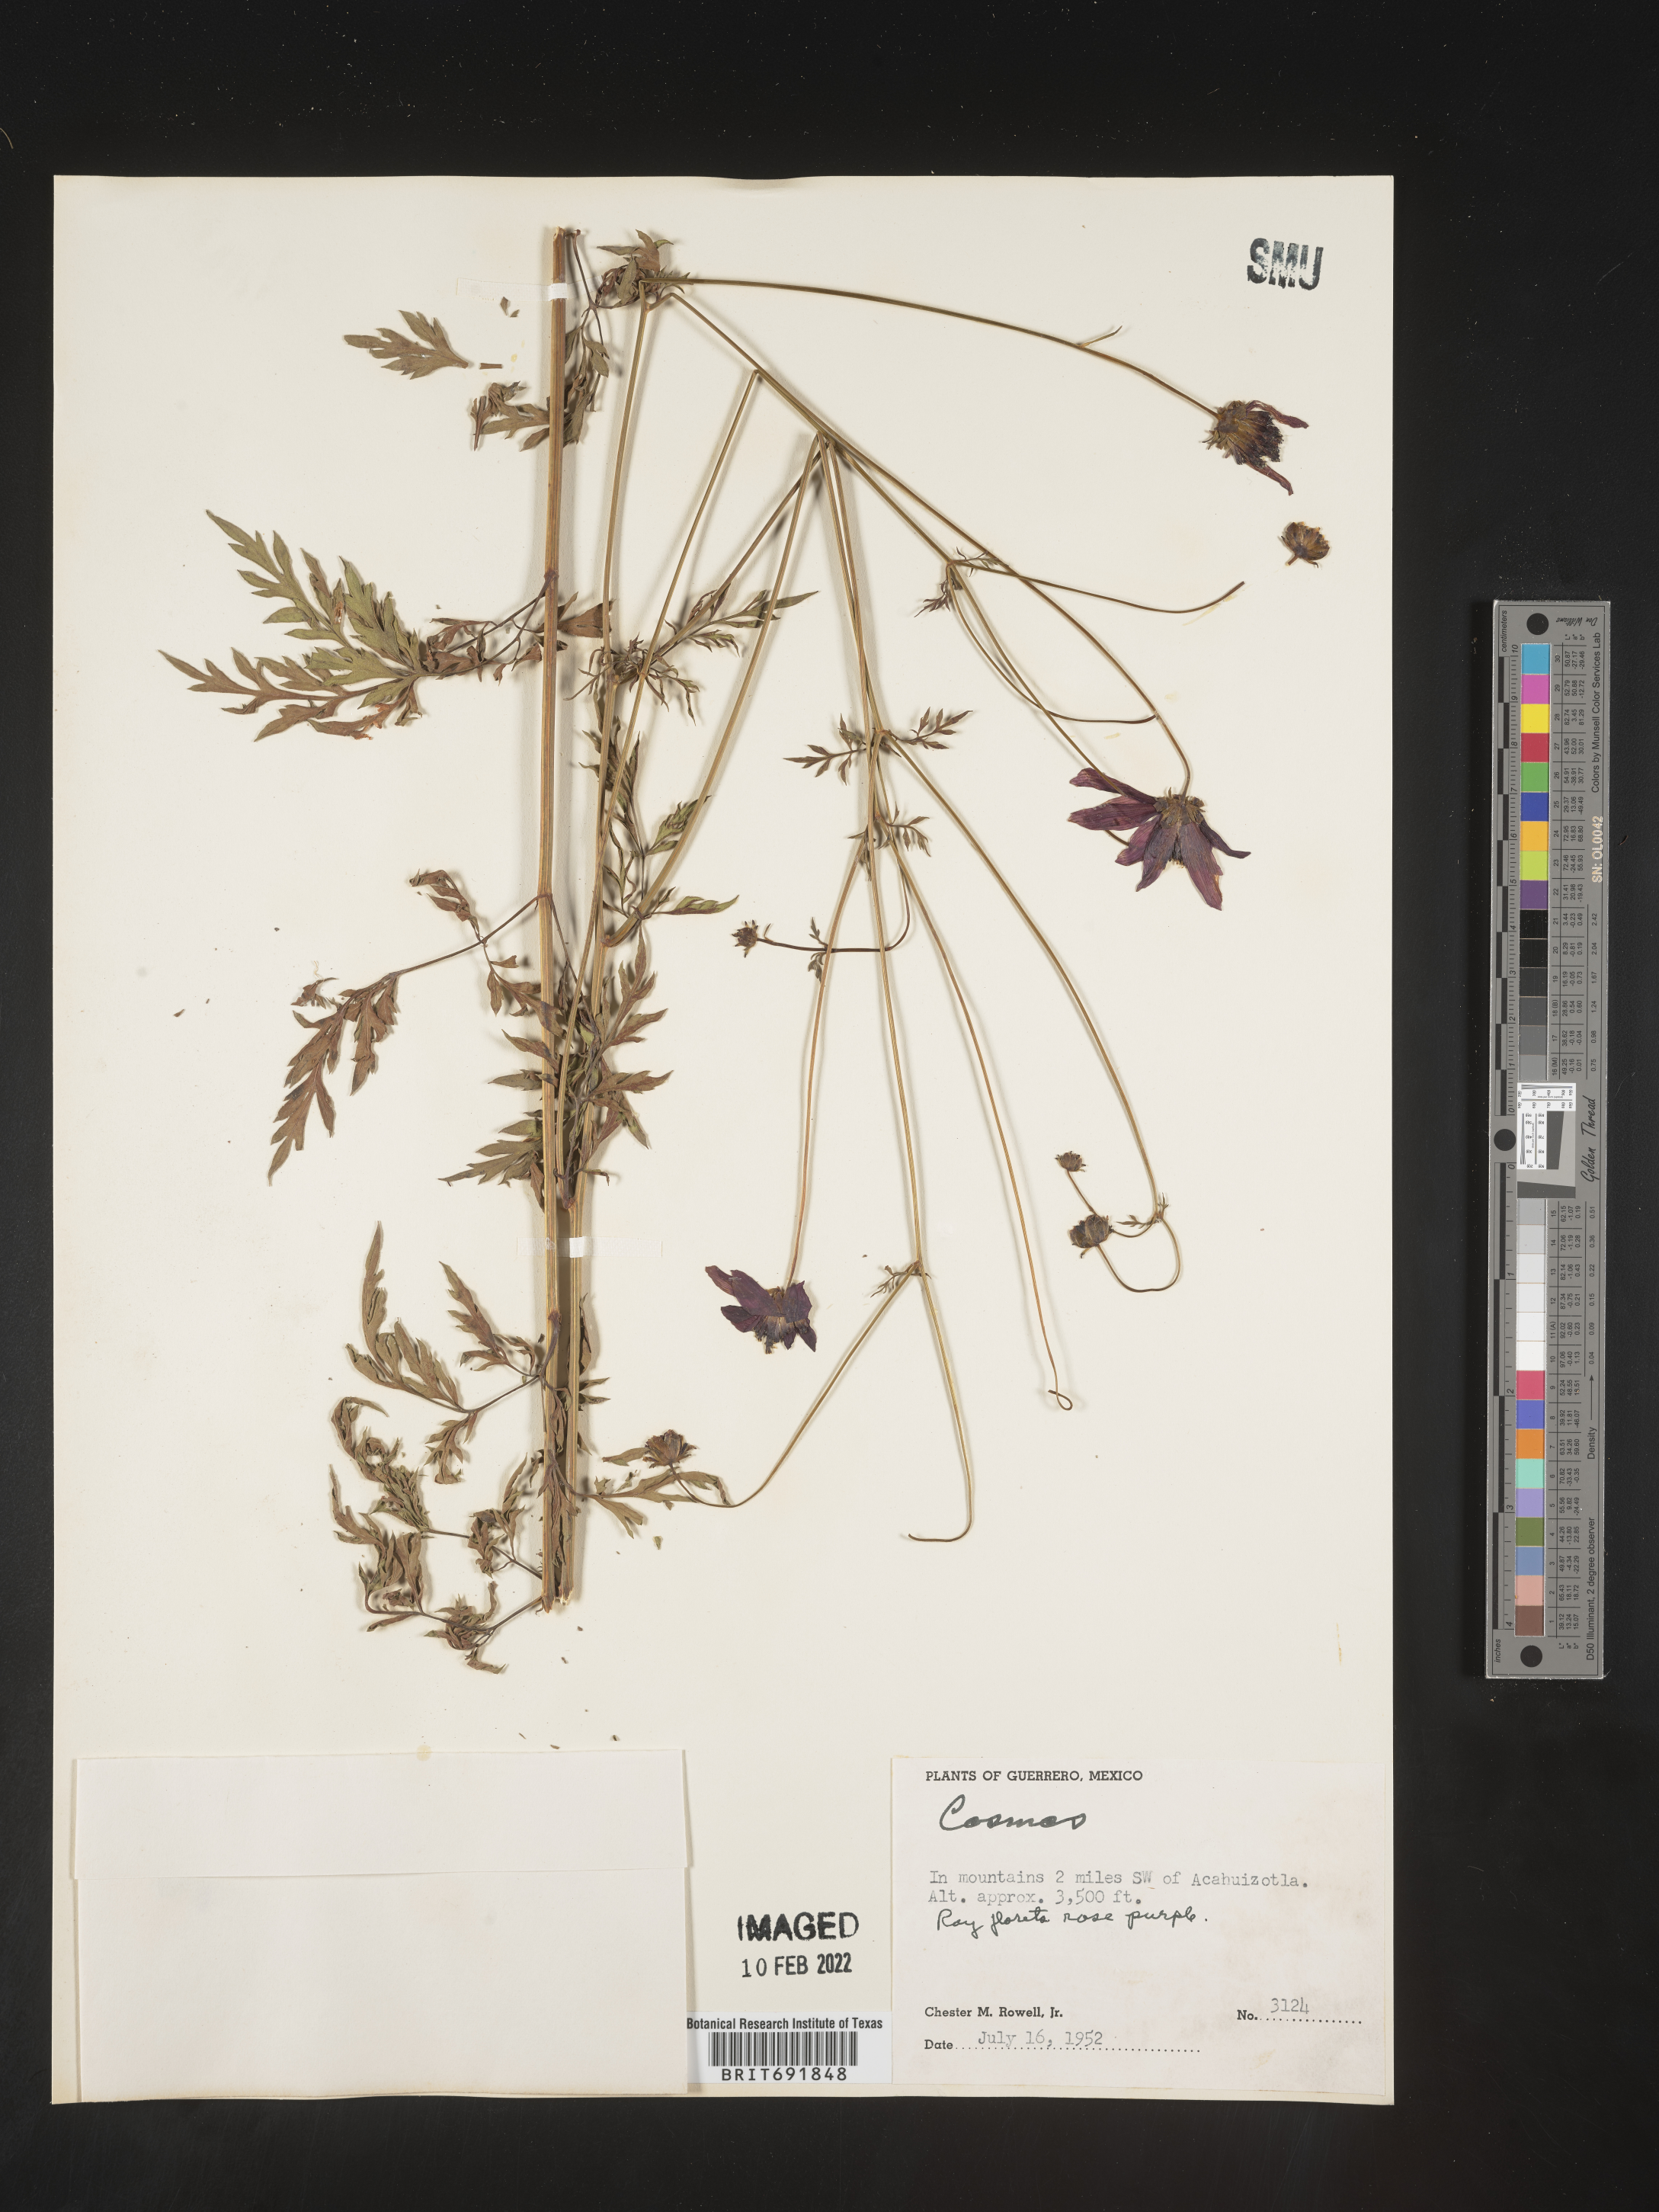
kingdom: Plantae
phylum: Tracheophyta
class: Magnoliopsida
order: Asterales
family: Asteraceae
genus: Cosmos
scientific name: Cosmos
